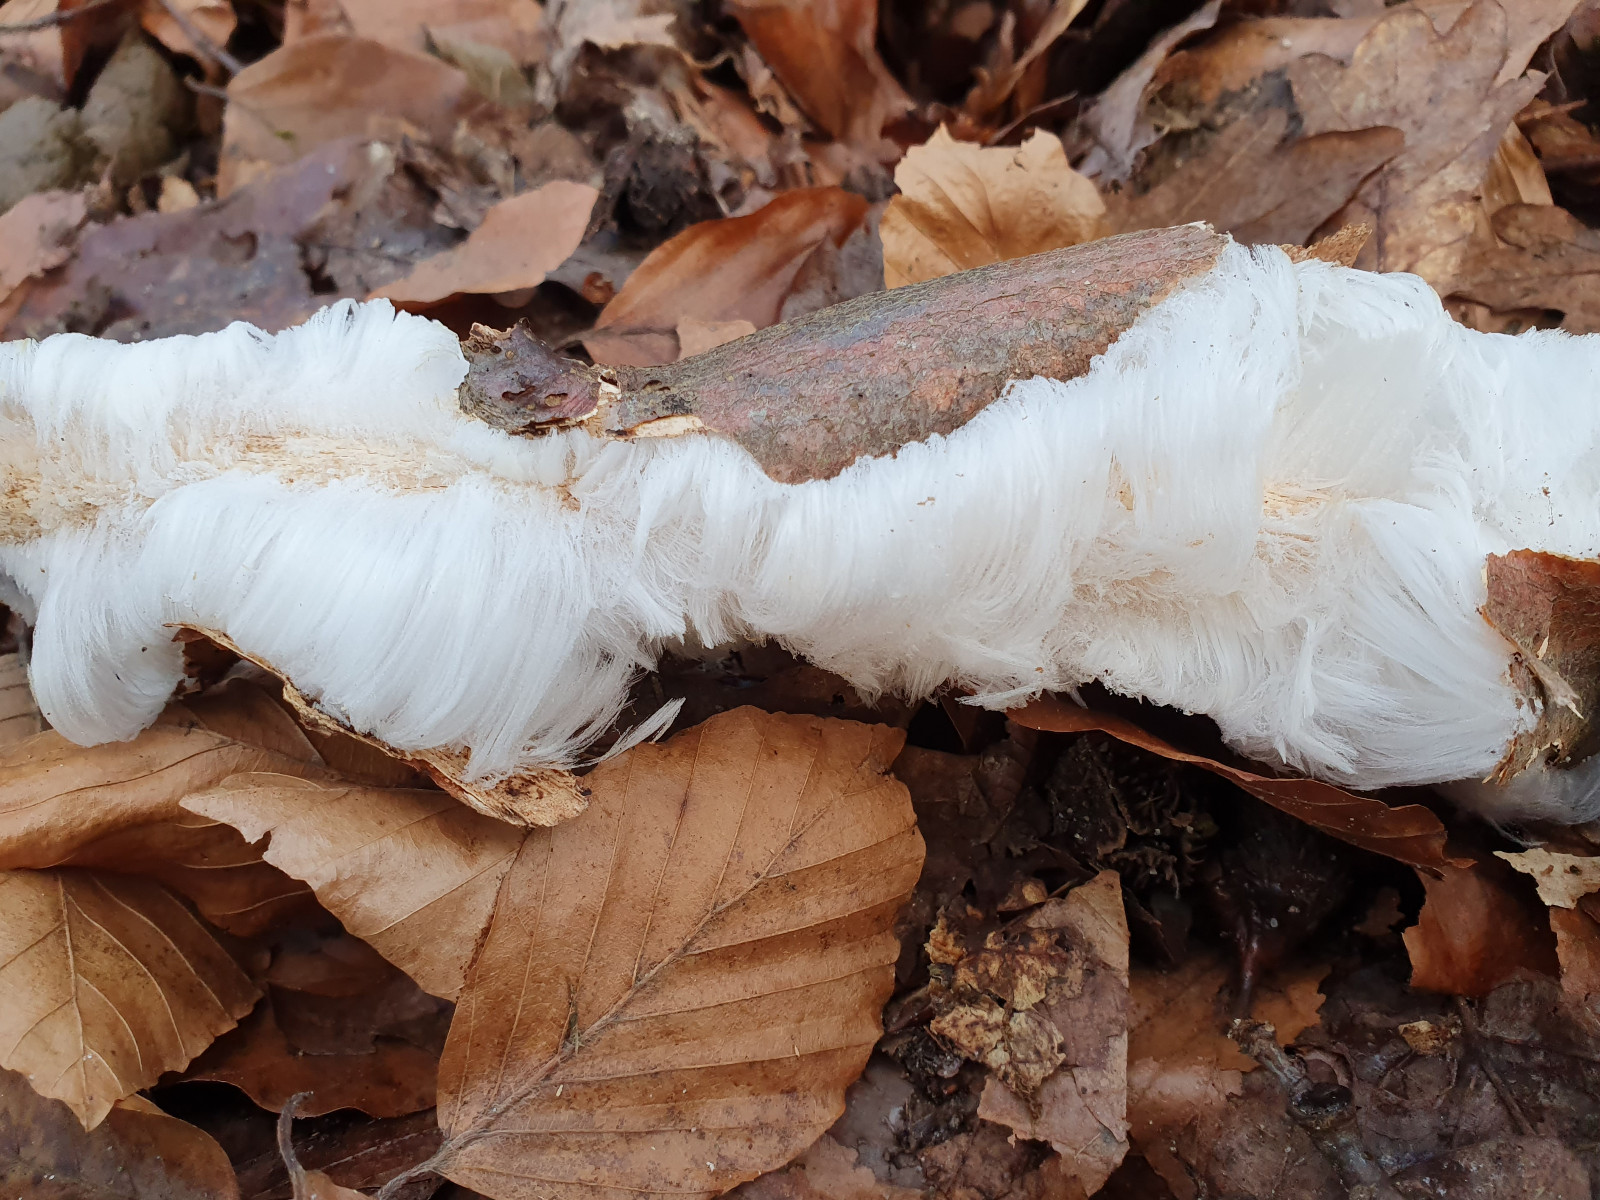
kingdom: Fungi
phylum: Basidiomycota
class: Tremellomycetes
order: Tremellales
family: Exidiaceae
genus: Exidiopsis
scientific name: Exidiopsis effusa
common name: smuk bævrehinde
